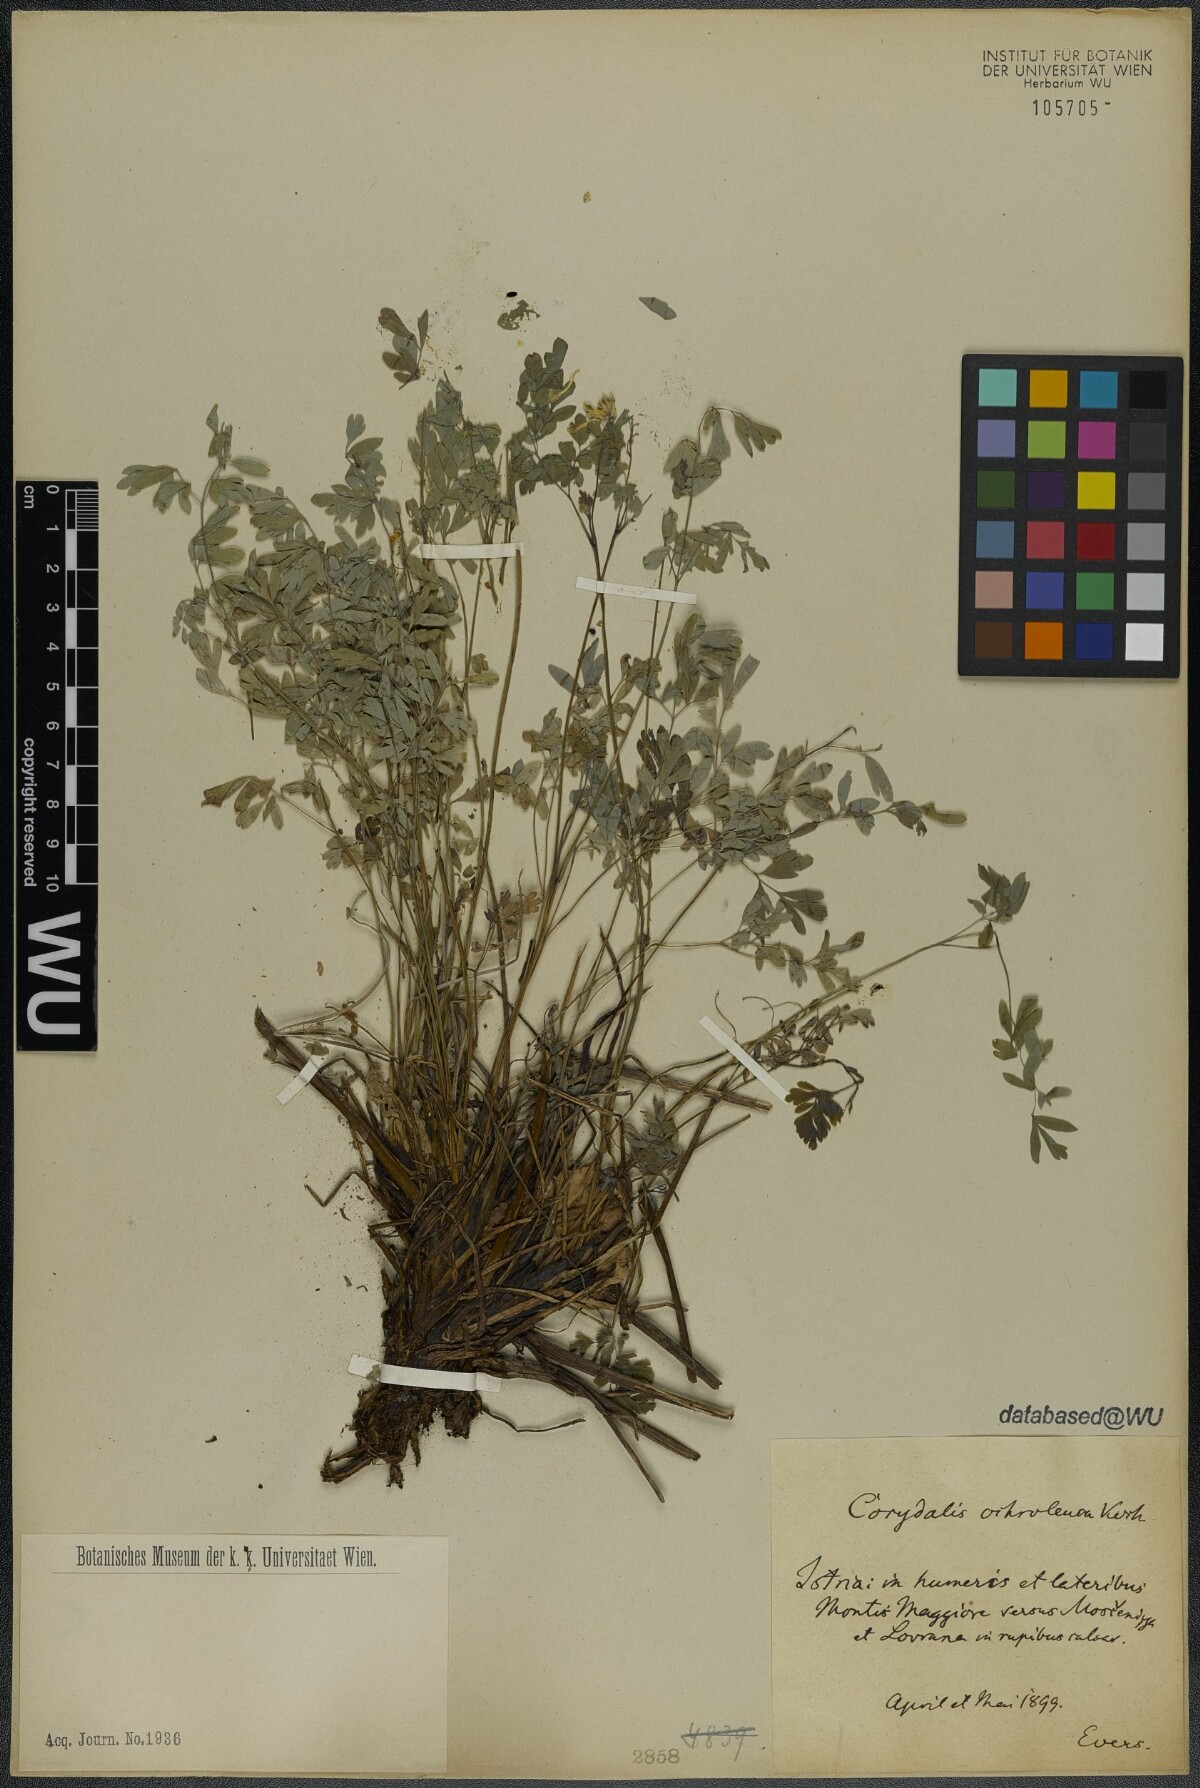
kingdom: Plantae
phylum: Tracheophyta
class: Magnoliopsida
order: Ranunculales
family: Papaveraceae
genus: Pseudofumaria
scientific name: Pseudofumaria alba
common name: Pale corydalis
